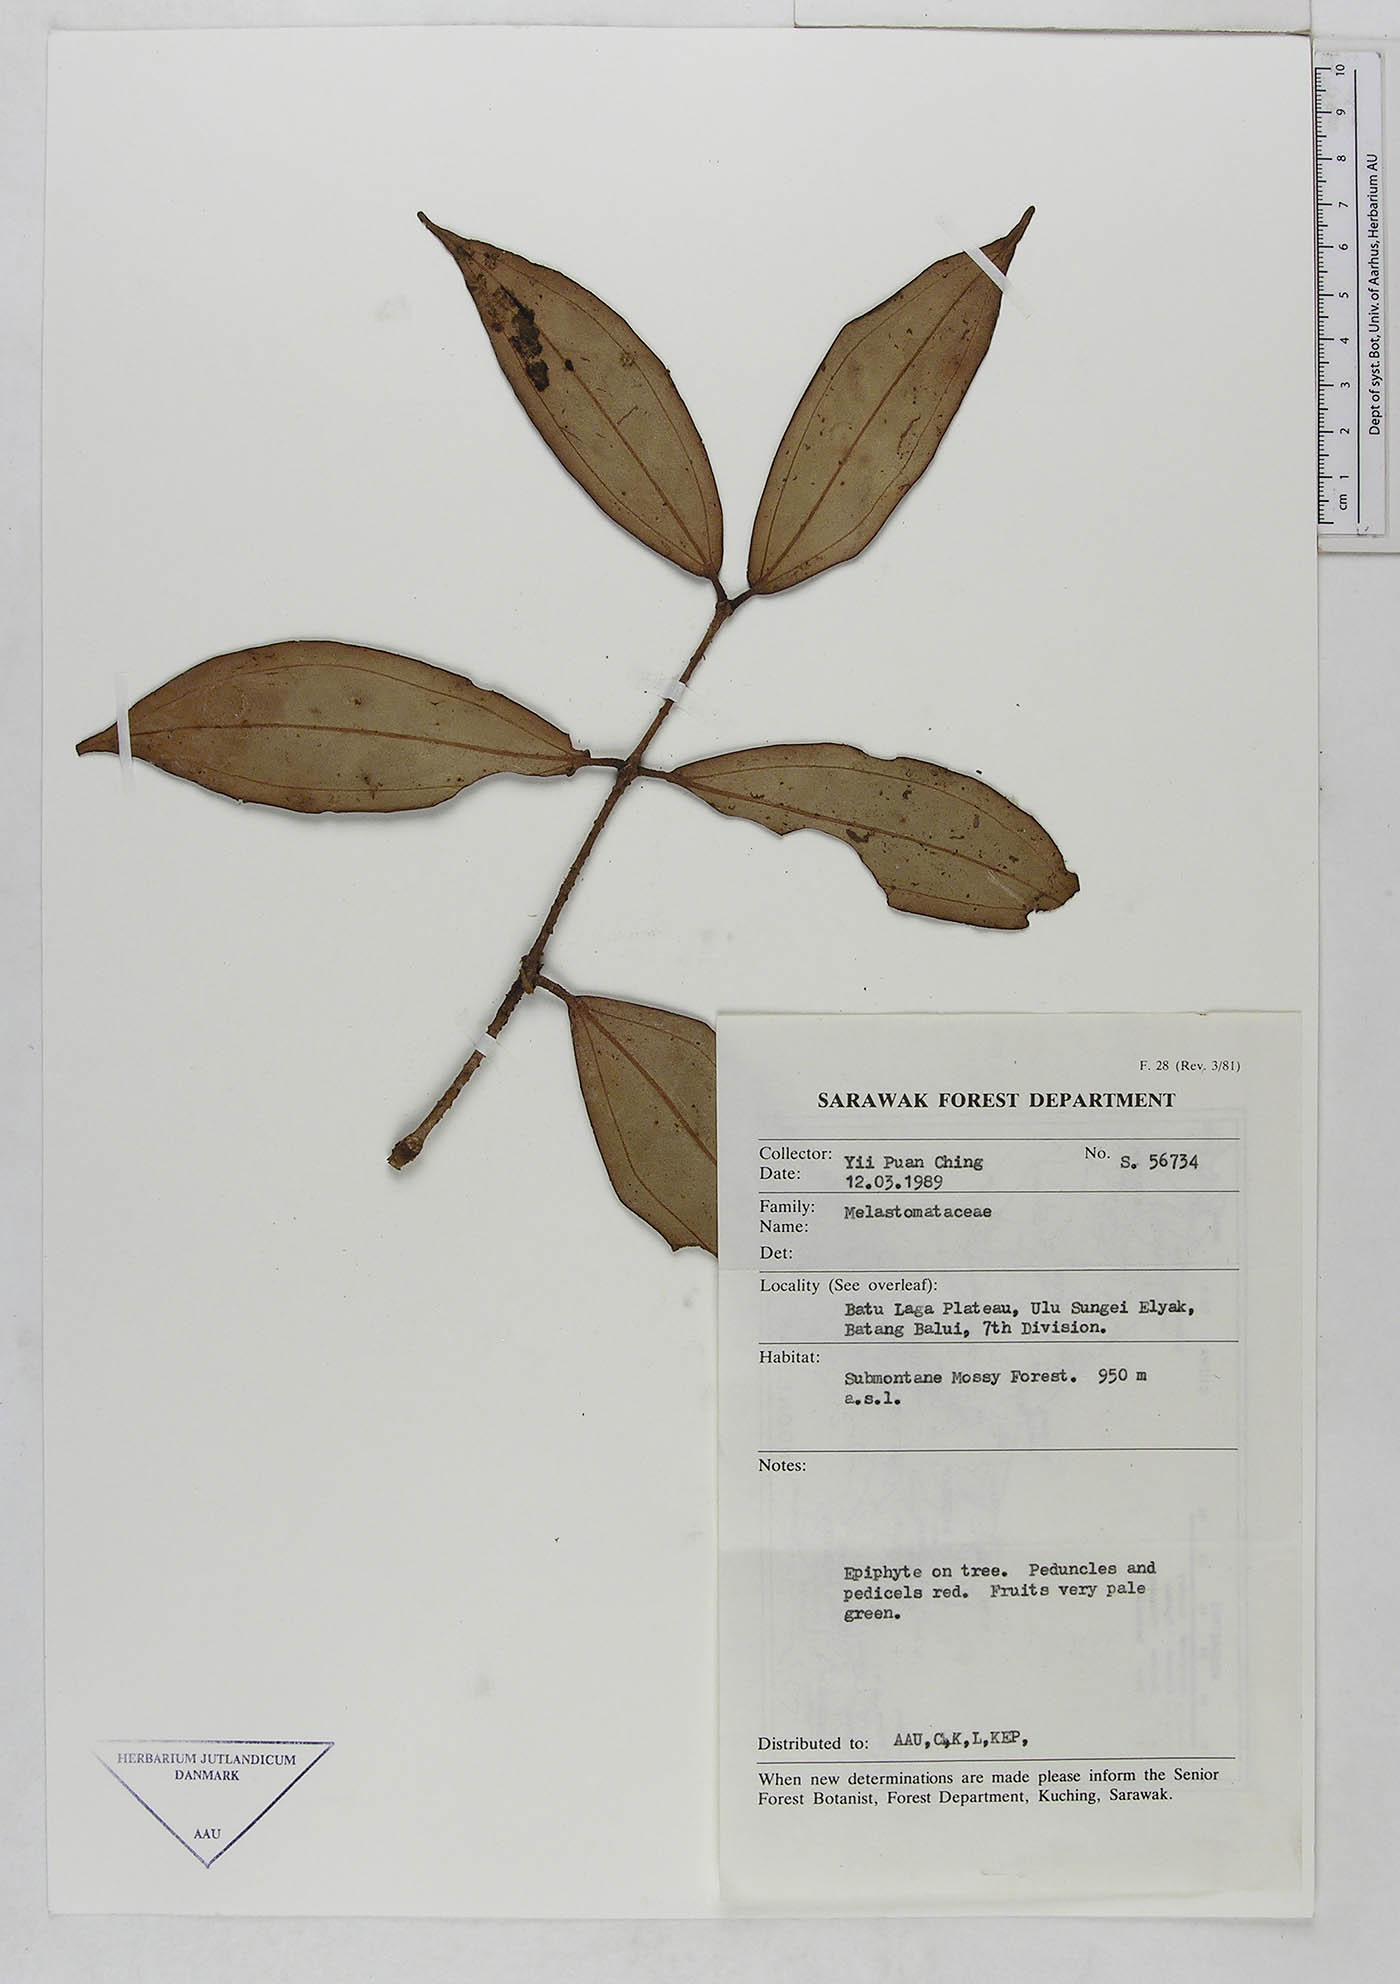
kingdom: Plantae
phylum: Tracheophyta
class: Magnoliopsida
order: Myrtales
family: Melastomataceae
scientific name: Melastomataceae
